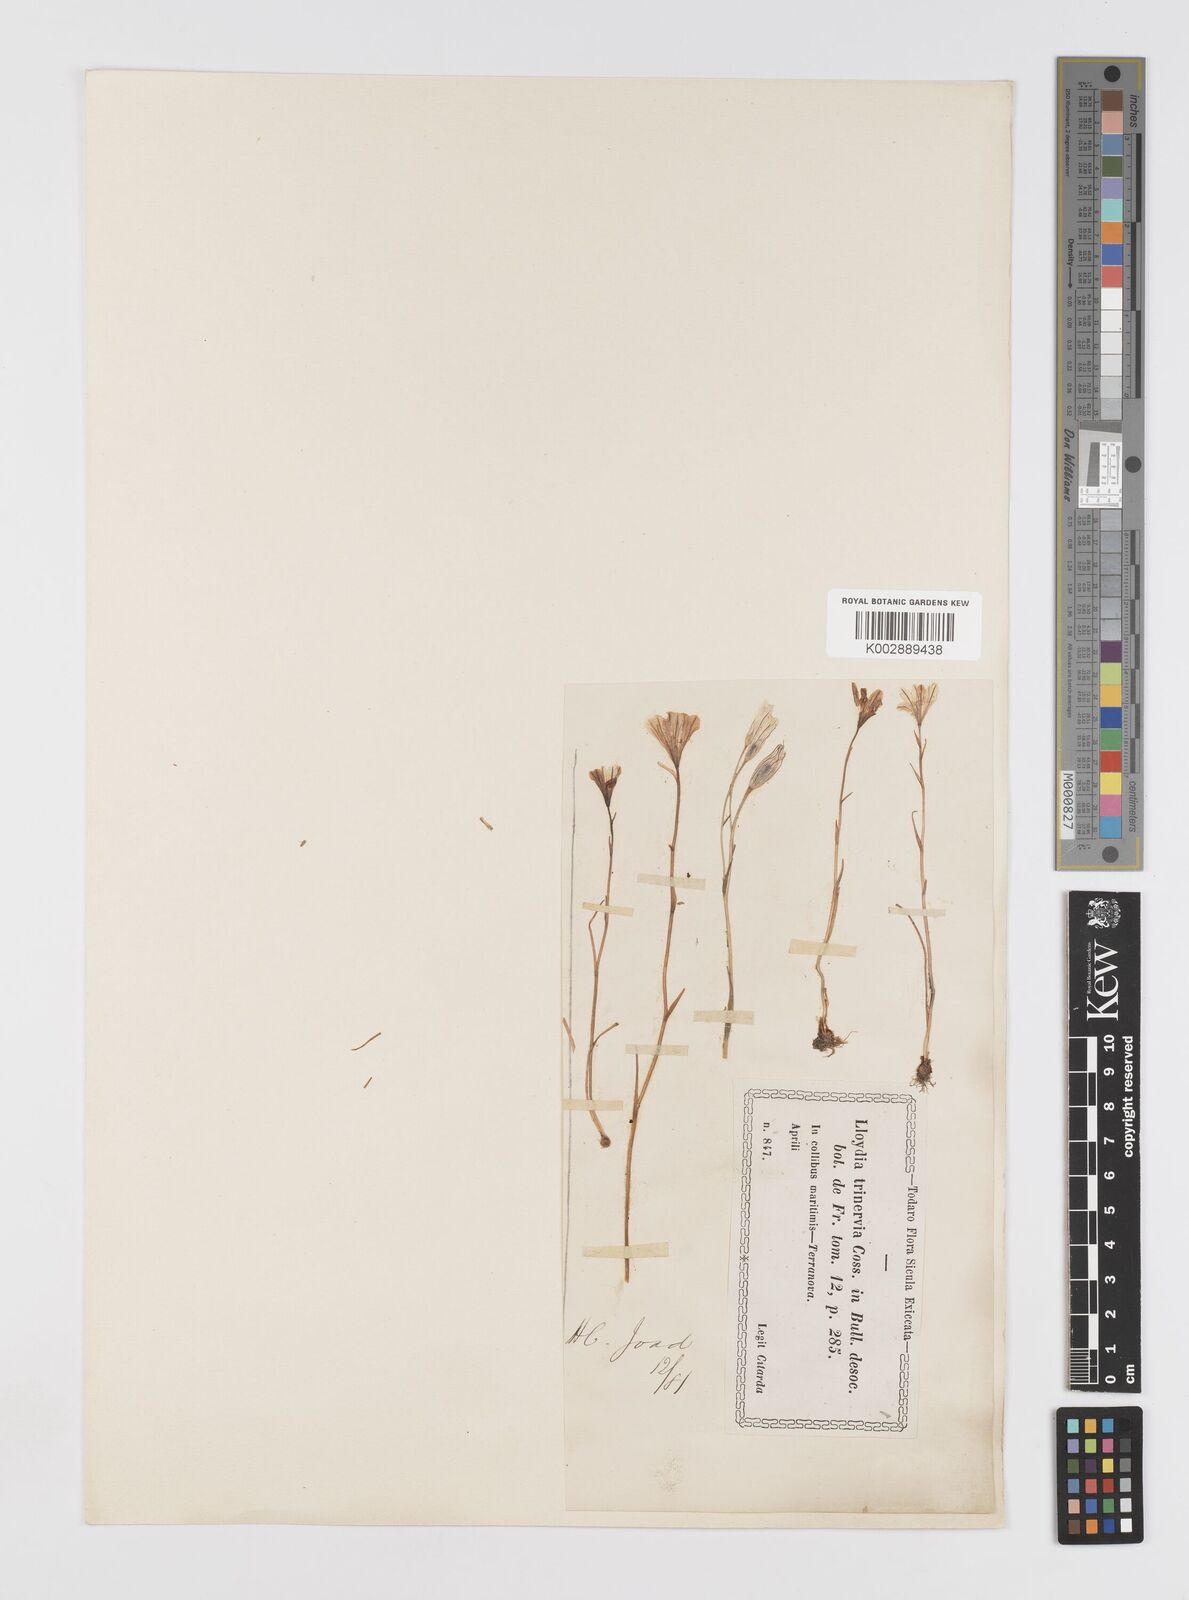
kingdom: Plantae
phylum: Tracheophyta
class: Liliopsida
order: Liliales
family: Liliaceae
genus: Gagea
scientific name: Gagea
